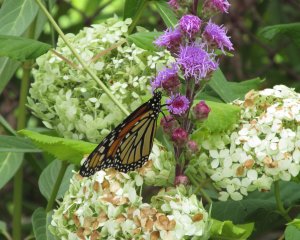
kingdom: Animalia
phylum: Arthropoda
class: Insecta
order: Lepidoptera
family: Nymphalidae
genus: Danaus
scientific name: Danaus plexippus
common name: Monarch
